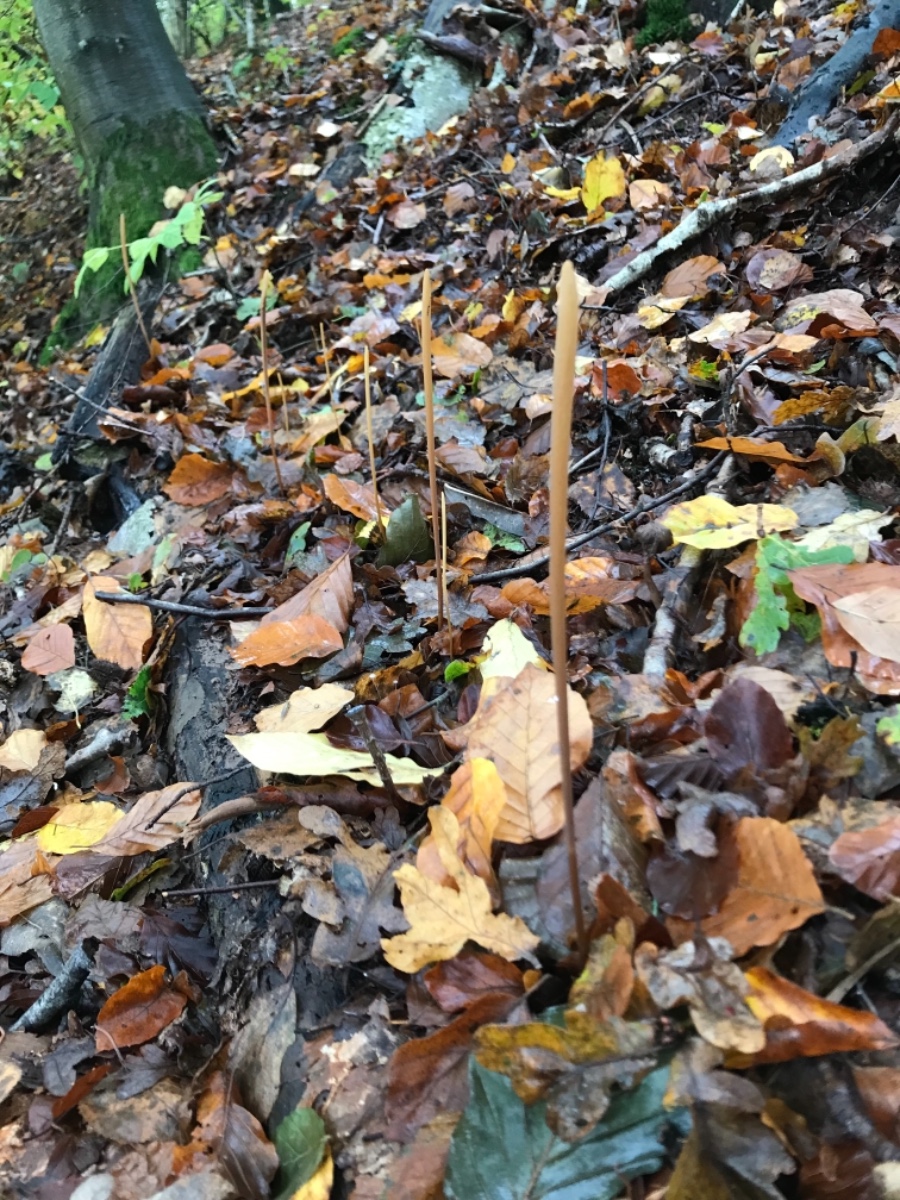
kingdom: Fungi
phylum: Basidiomycota
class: Agaricomycetes
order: Agaricales
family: Typhulaceae
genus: Typhula
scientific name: Typhula fistulosa
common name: pibet rørkølle
